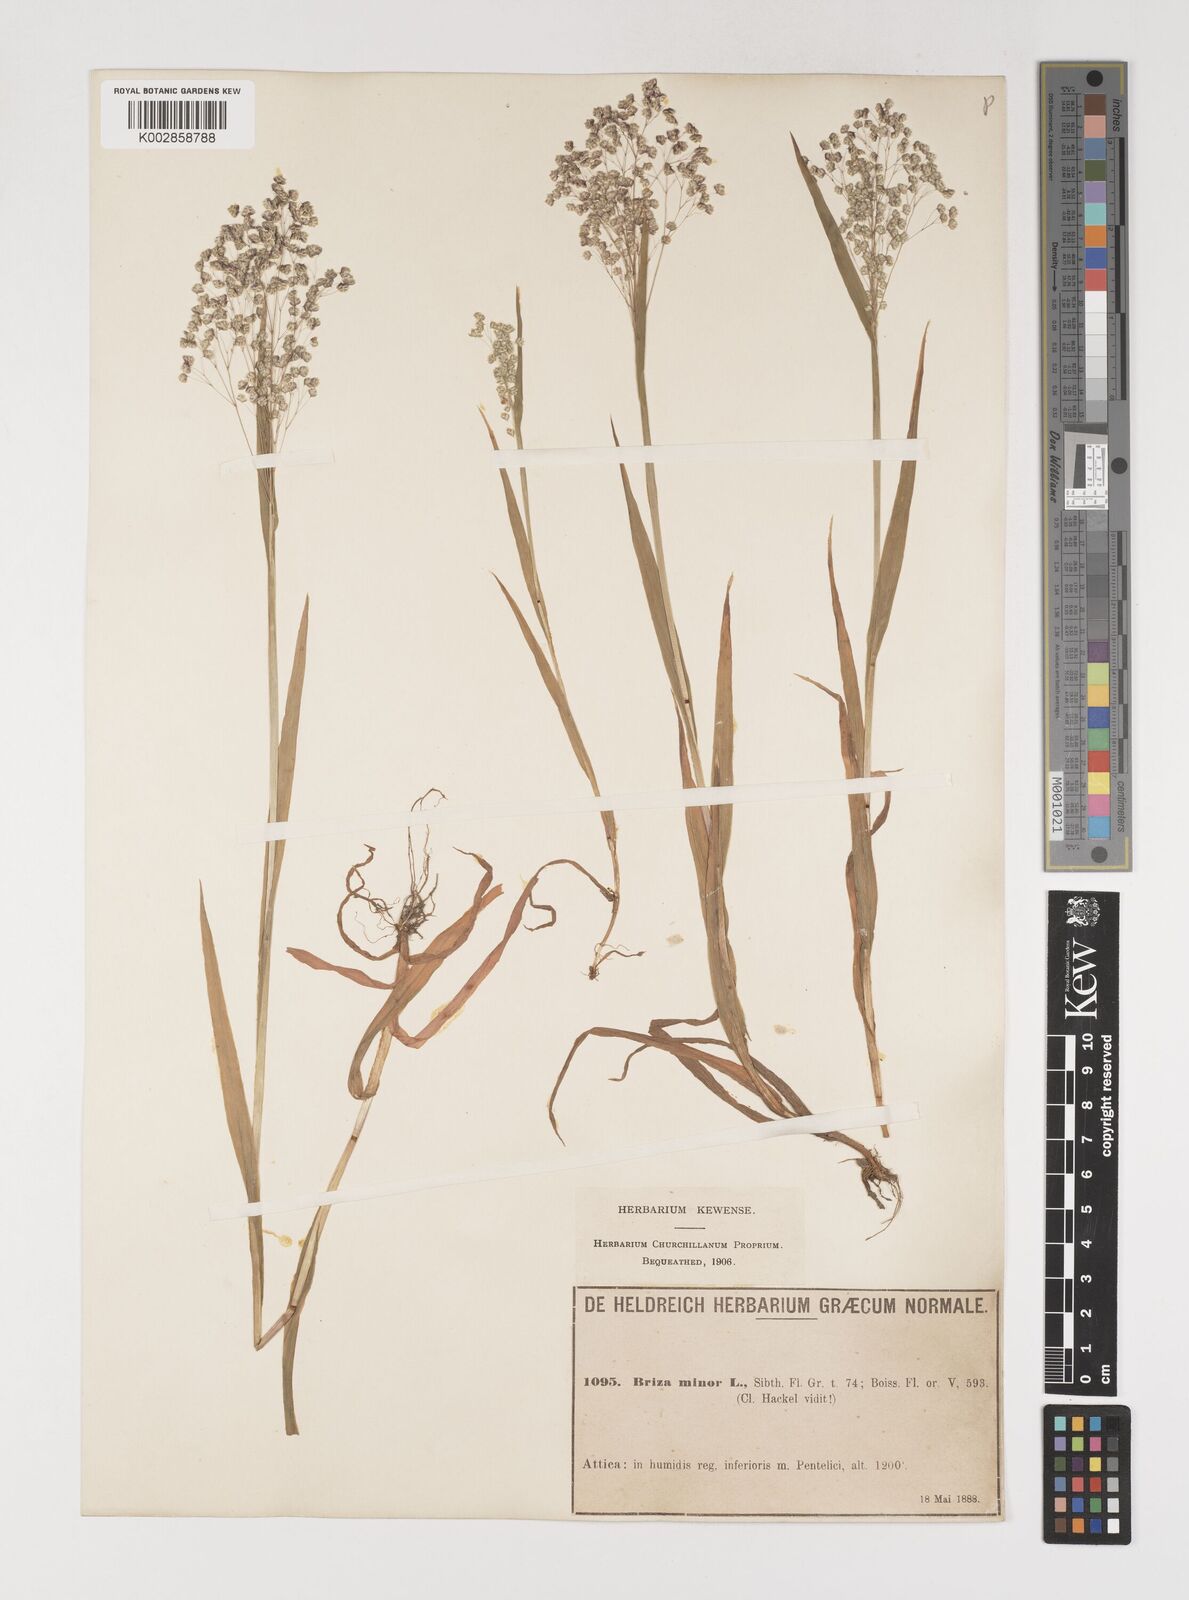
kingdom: Plantae
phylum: Tracheophyta
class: Liliopsida
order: Poales
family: Poaceae
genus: Briza
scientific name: Briza minor
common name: Lesser quaking-grass
